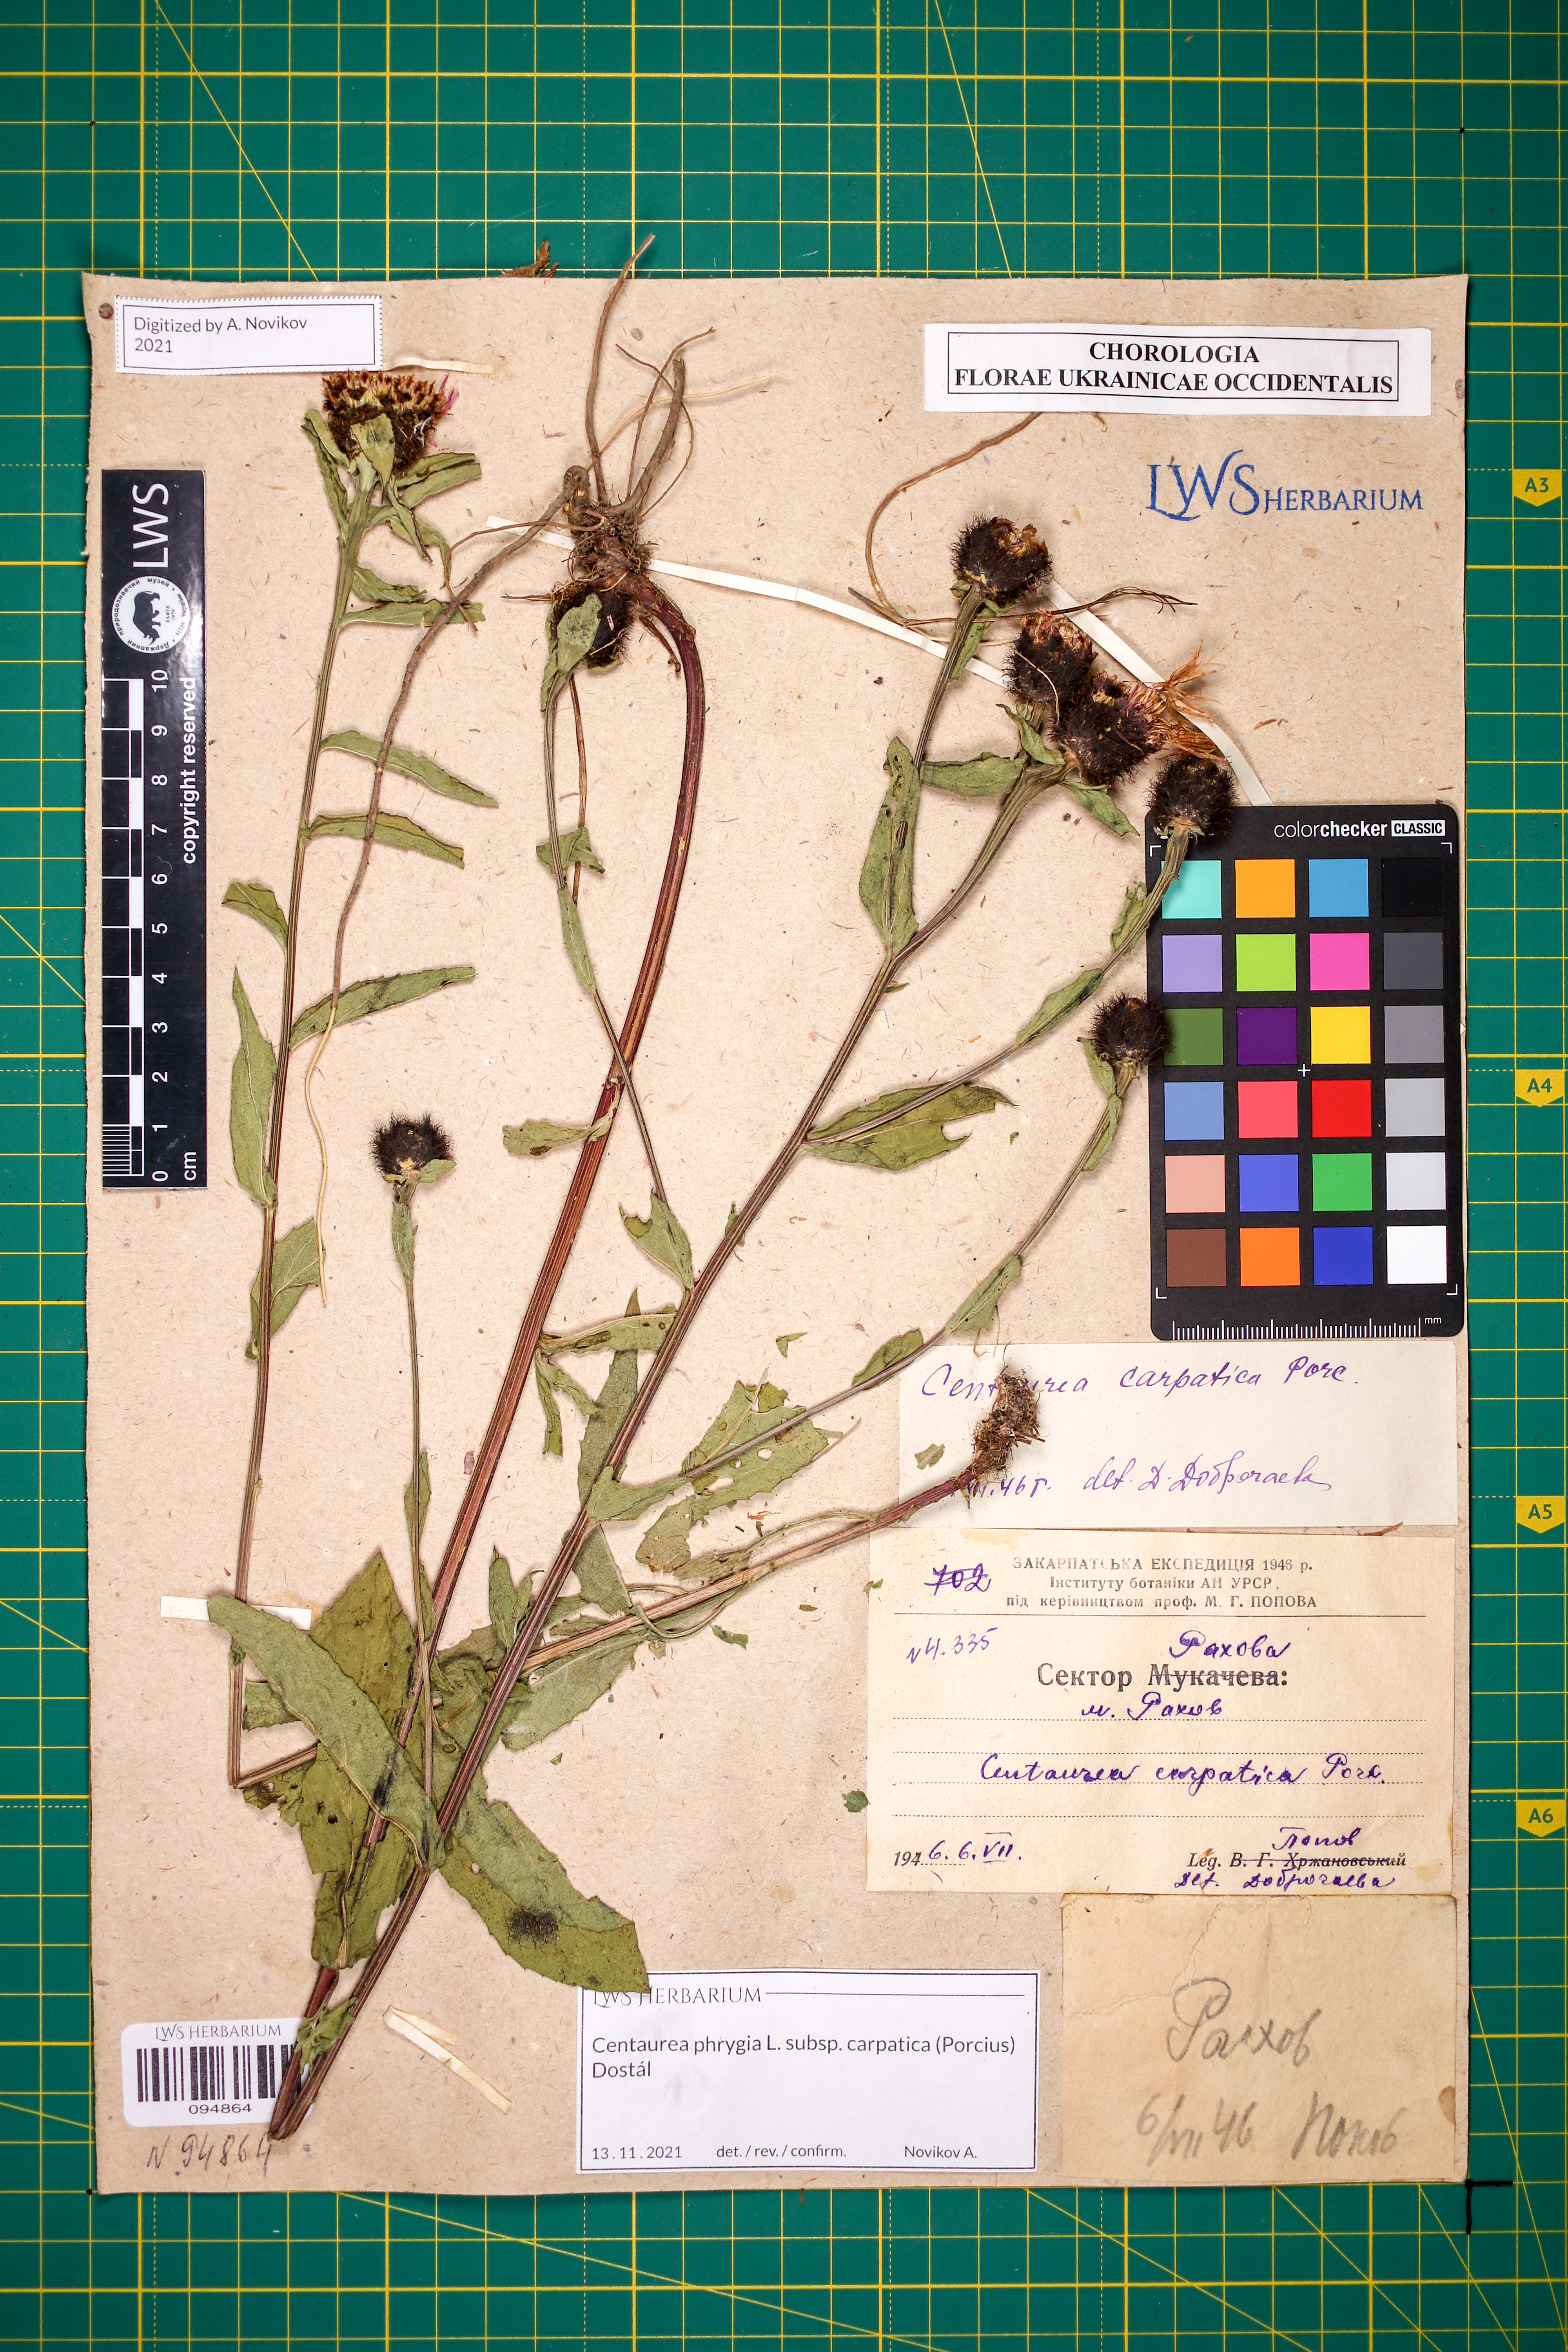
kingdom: Plantae
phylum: Tracheophyta
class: Magnoliopsida
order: Asterales
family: Asteraceae
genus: Centaurea
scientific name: Centaurea phrygia
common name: Wig knapweed
